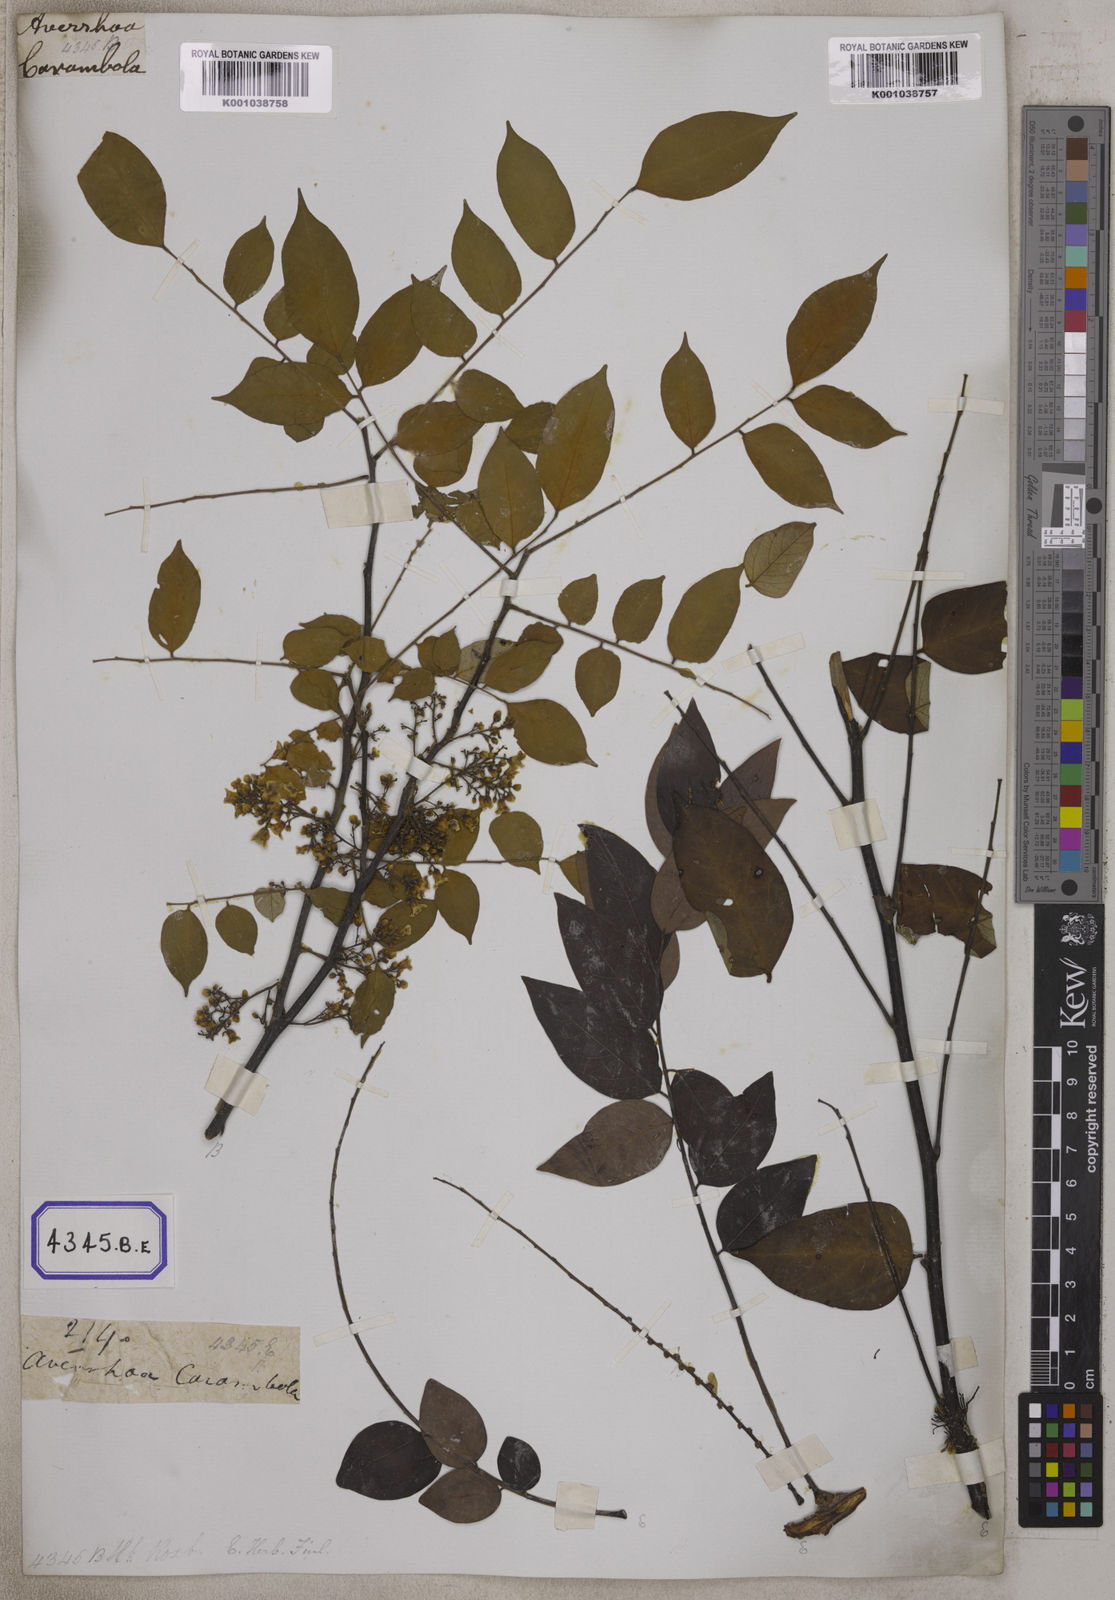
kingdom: Plantae
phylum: Tracheophyta
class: Magnoliopsida
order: Oxalidales
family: Oxalidaceae
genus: Averrhoa
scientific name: Averrhoa carambola
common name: Blimbing
